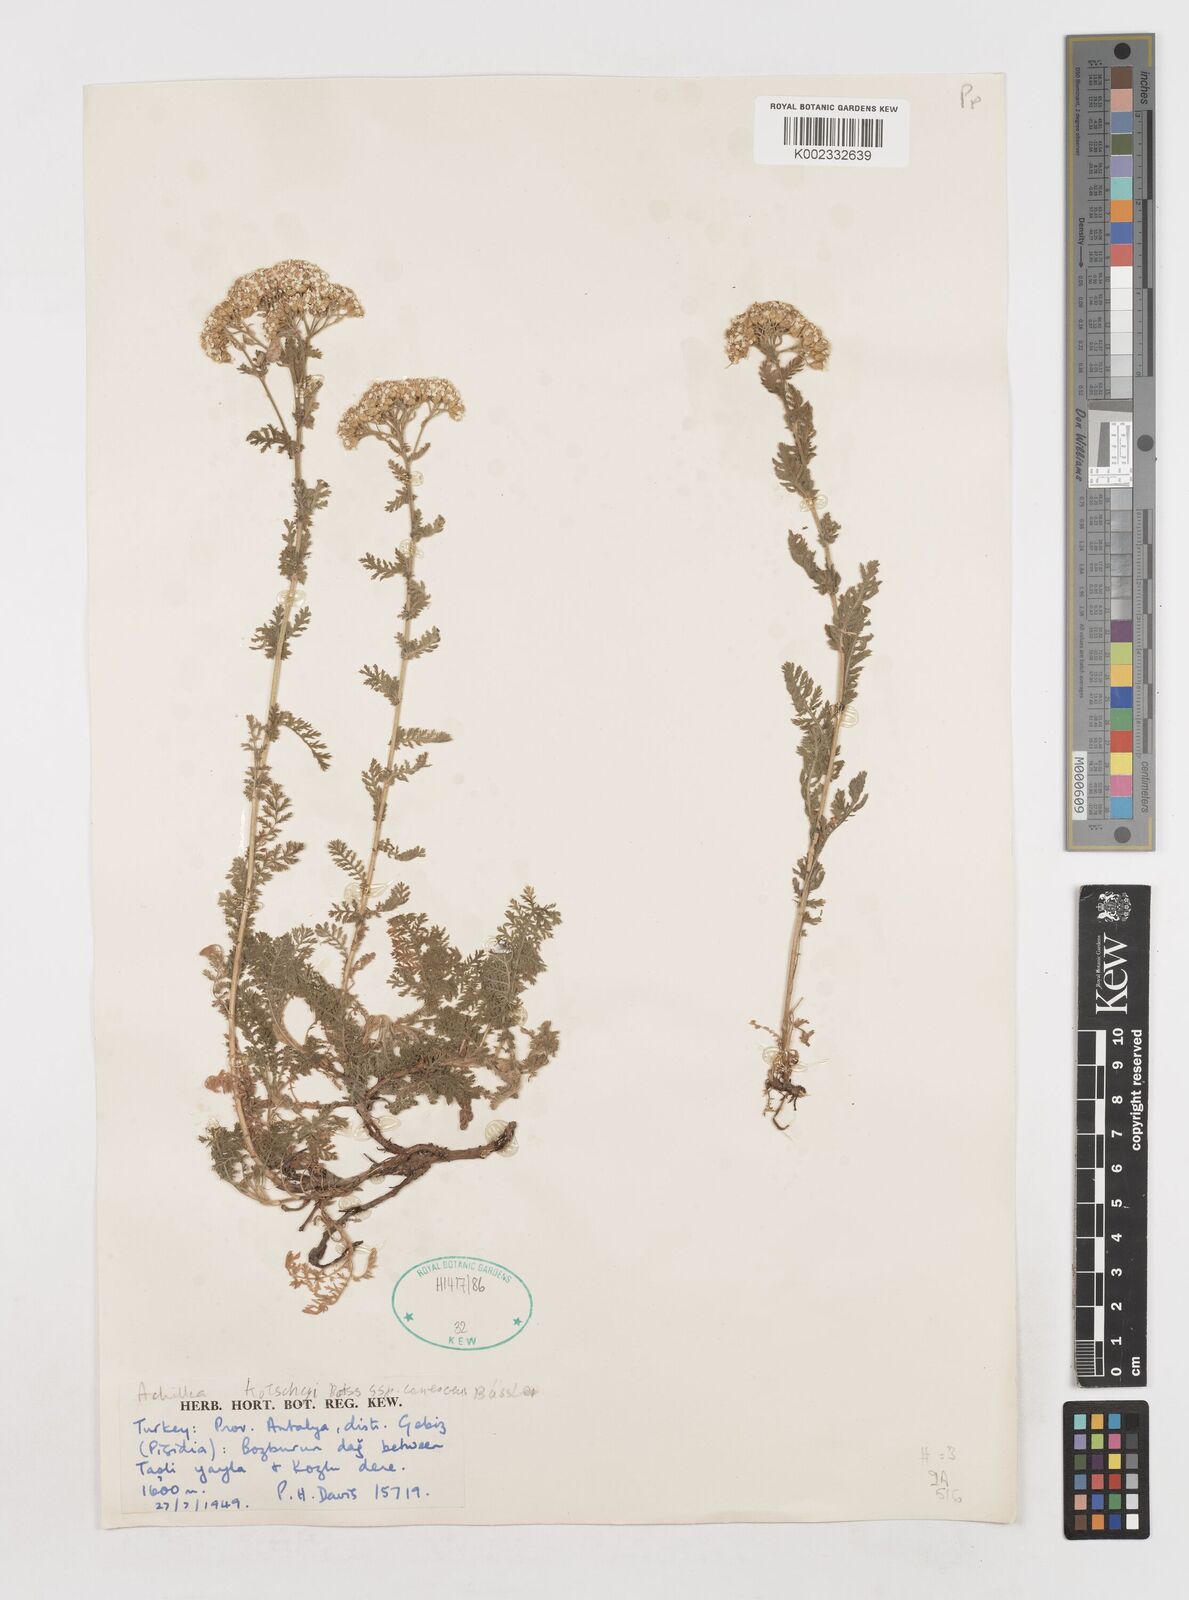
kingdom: Plantae
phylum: Tracheophyta
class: Magnoliopsida
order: Asterales
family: Asteraceae
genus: Achillea
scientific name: Achillea kotschyi
